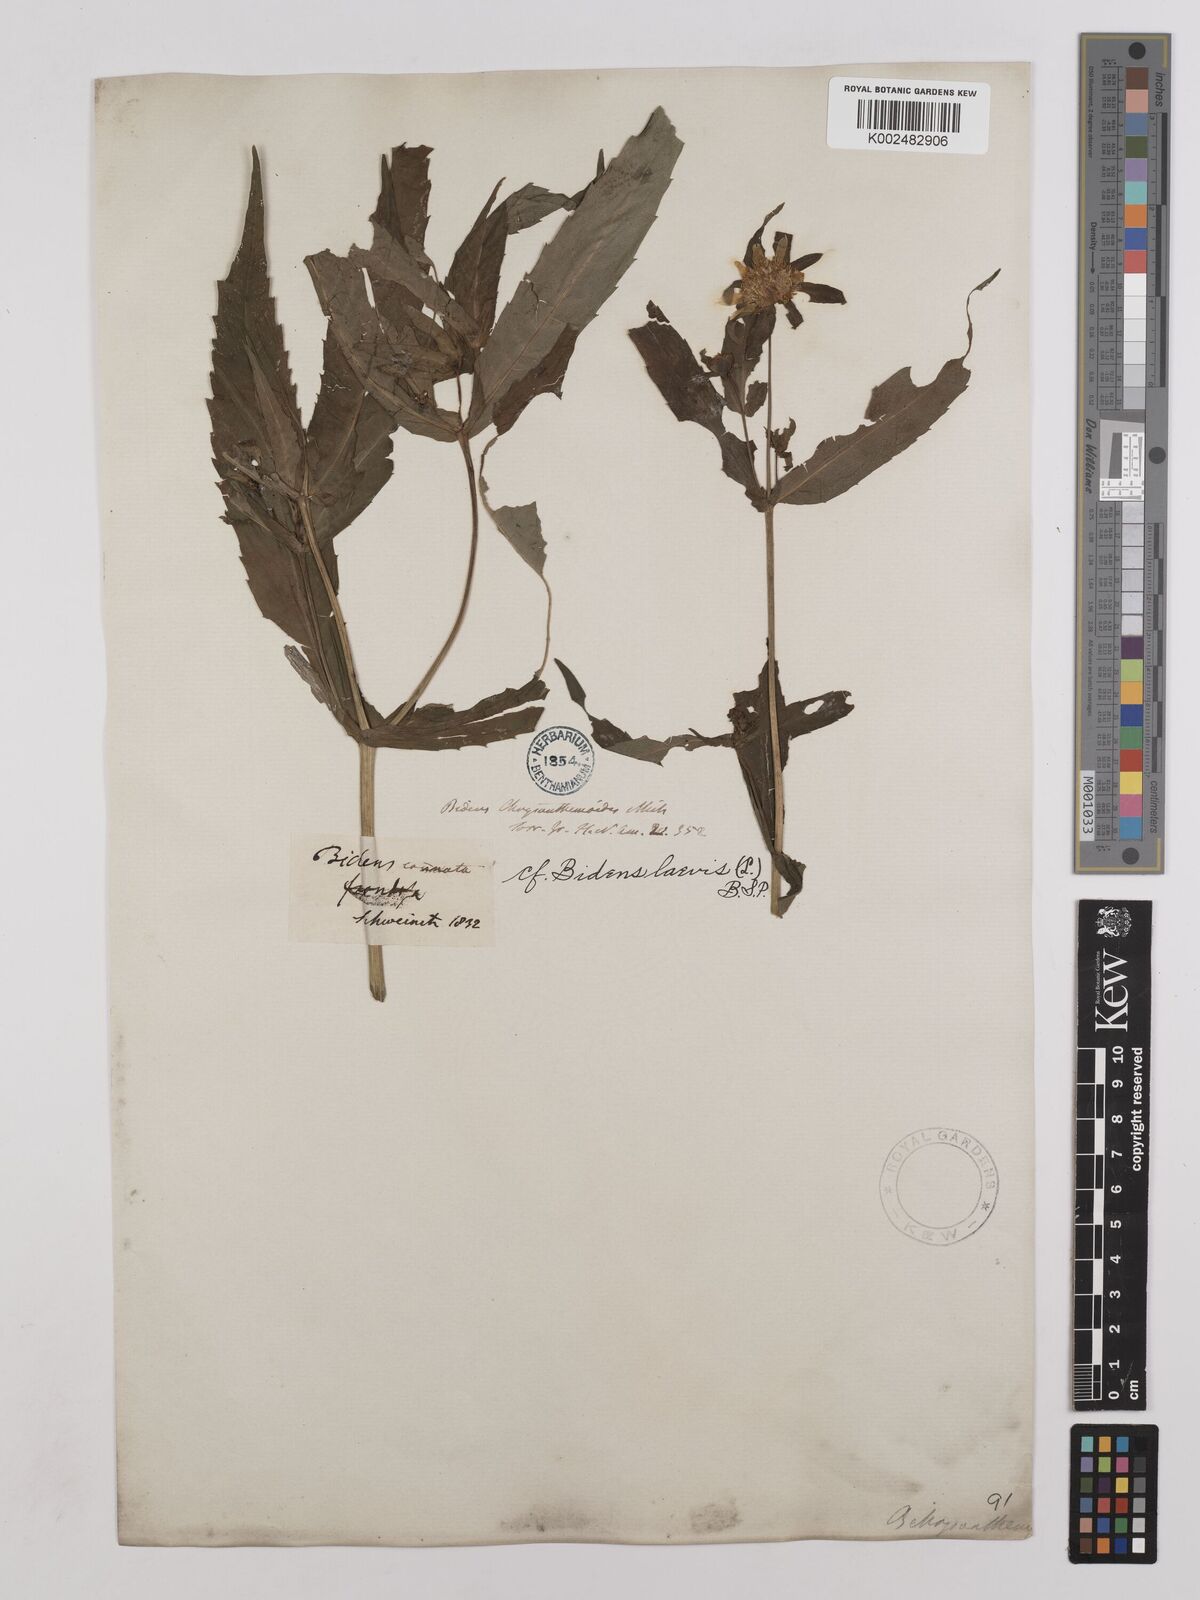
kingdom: Plantae
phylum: Tracheophyta
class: Magnoliopsida
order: Asterales
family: Asteraceae
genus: Bidens
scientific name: Bidens
